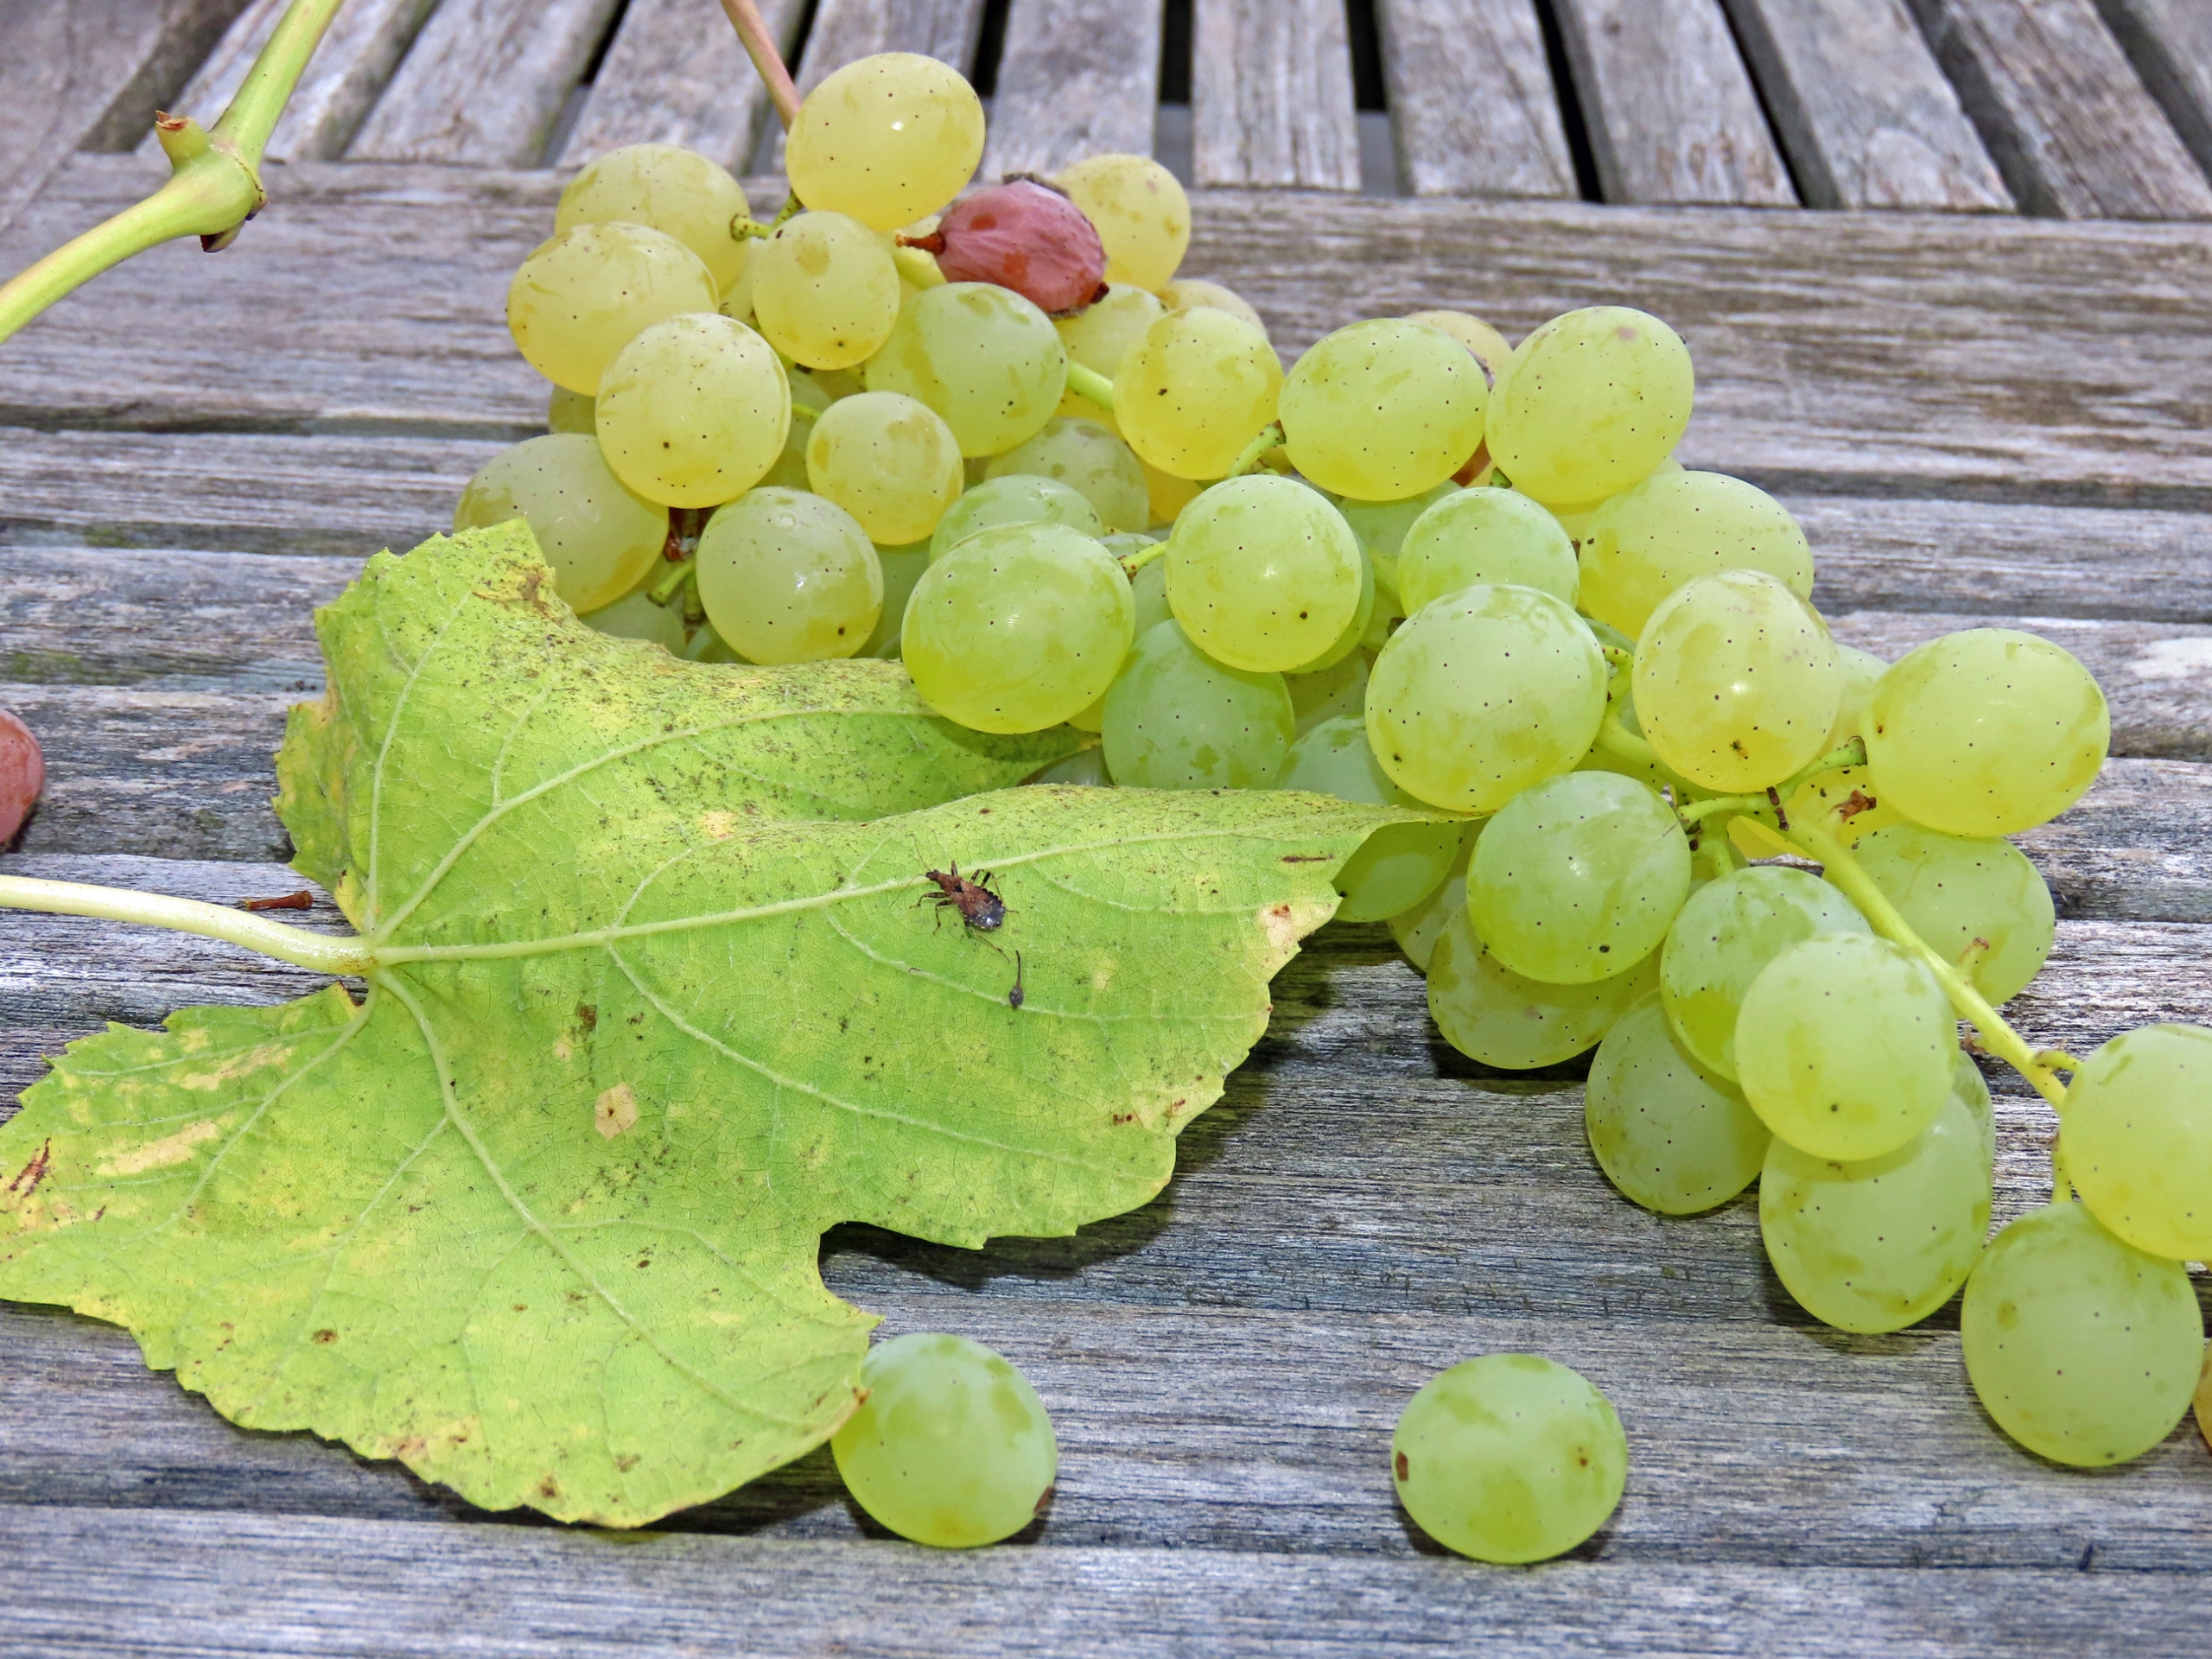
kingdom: Animalia
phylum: Arthropoda
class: Insecta
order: Hemiptera
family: Nabidae
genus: Himacerus
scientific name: Himacerus mirmicoides
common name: Myrenymfetæge
